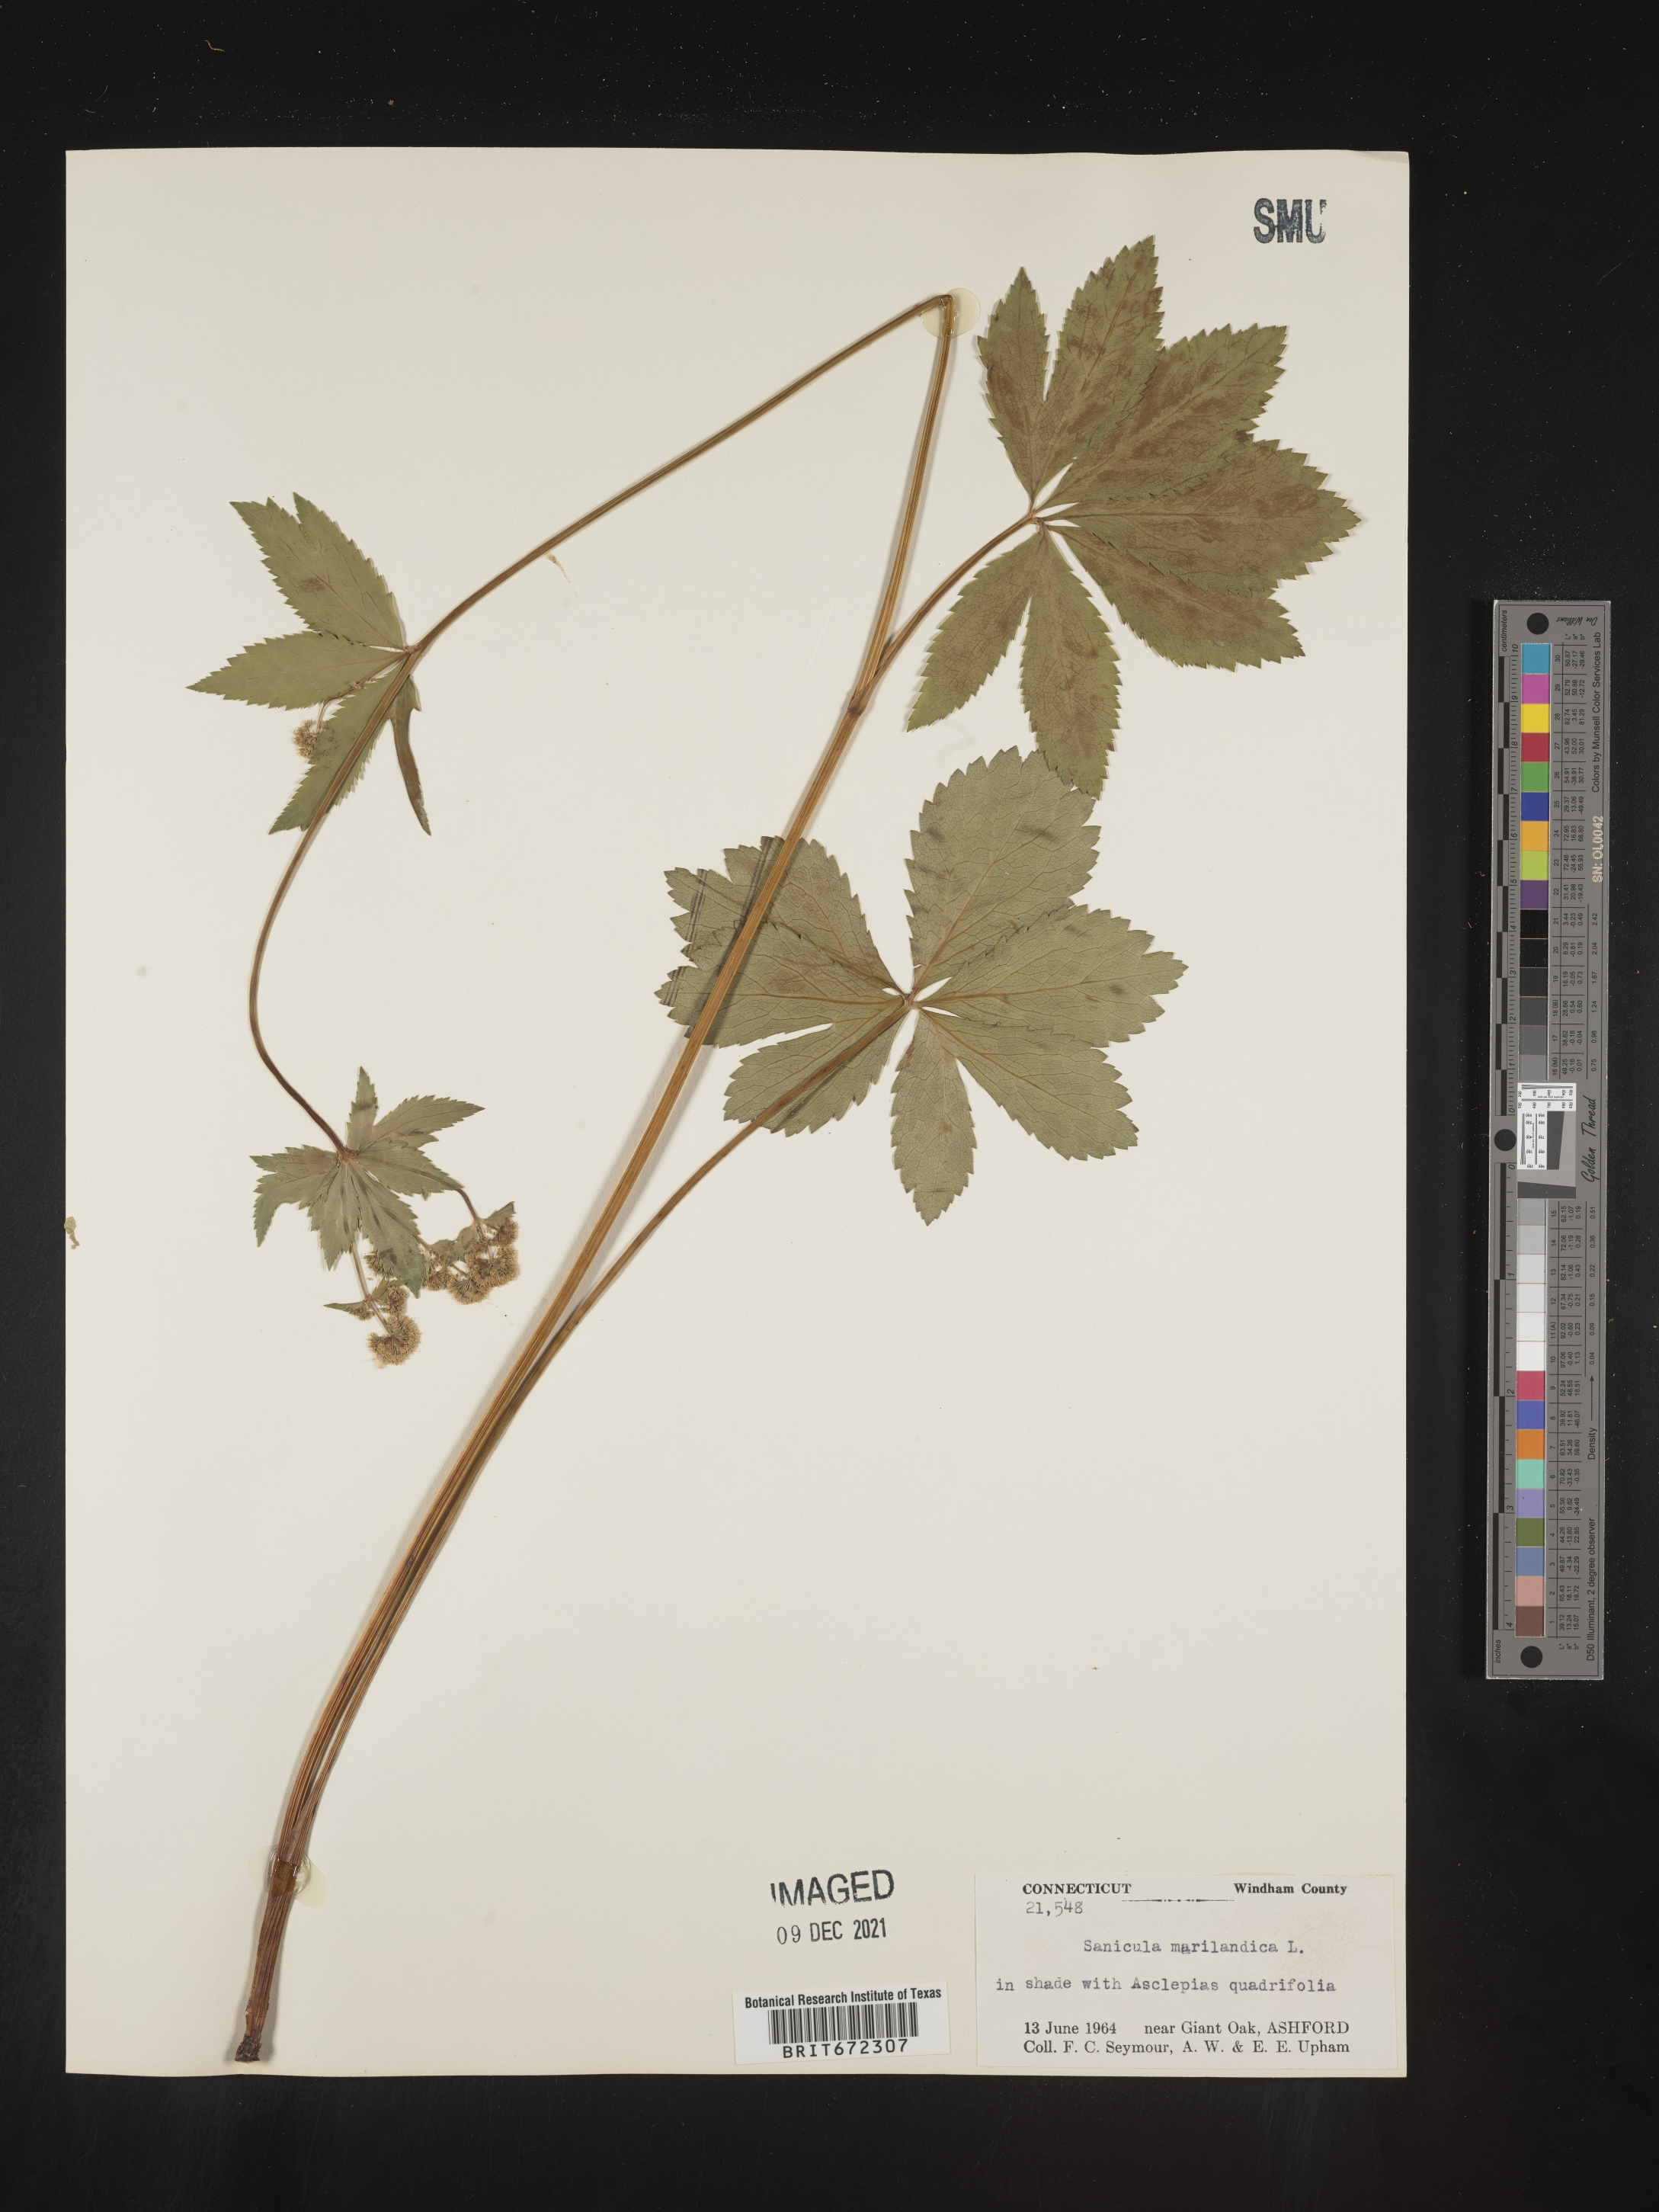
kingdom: Plantae
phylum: Tracheophyta
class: Magnoliopsida
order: Apiales
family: Apiaceae
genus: Sanicula
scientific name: Sanicula marilandica
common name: Black snakeroot
